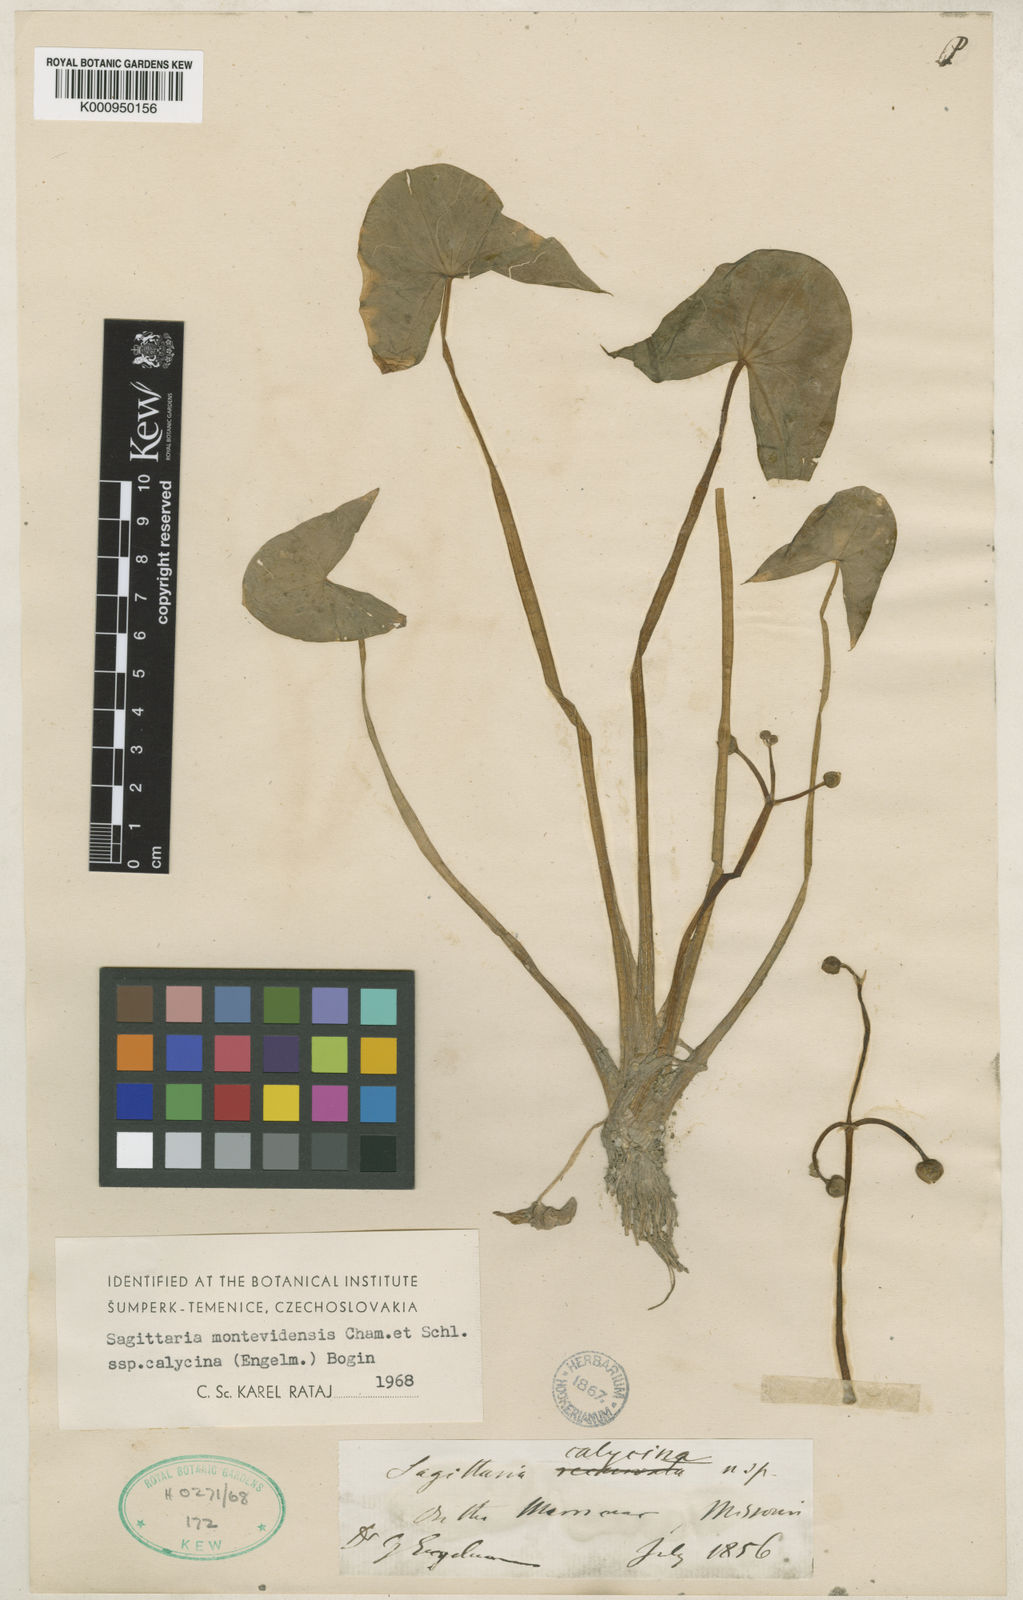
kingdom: Plantae
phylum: Tracheophyta
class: Liliopsida
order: Alismatales
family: Alismataceae
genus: Sagittaria
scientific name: Sagittaria montevidensis
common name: Giant arrowhead
